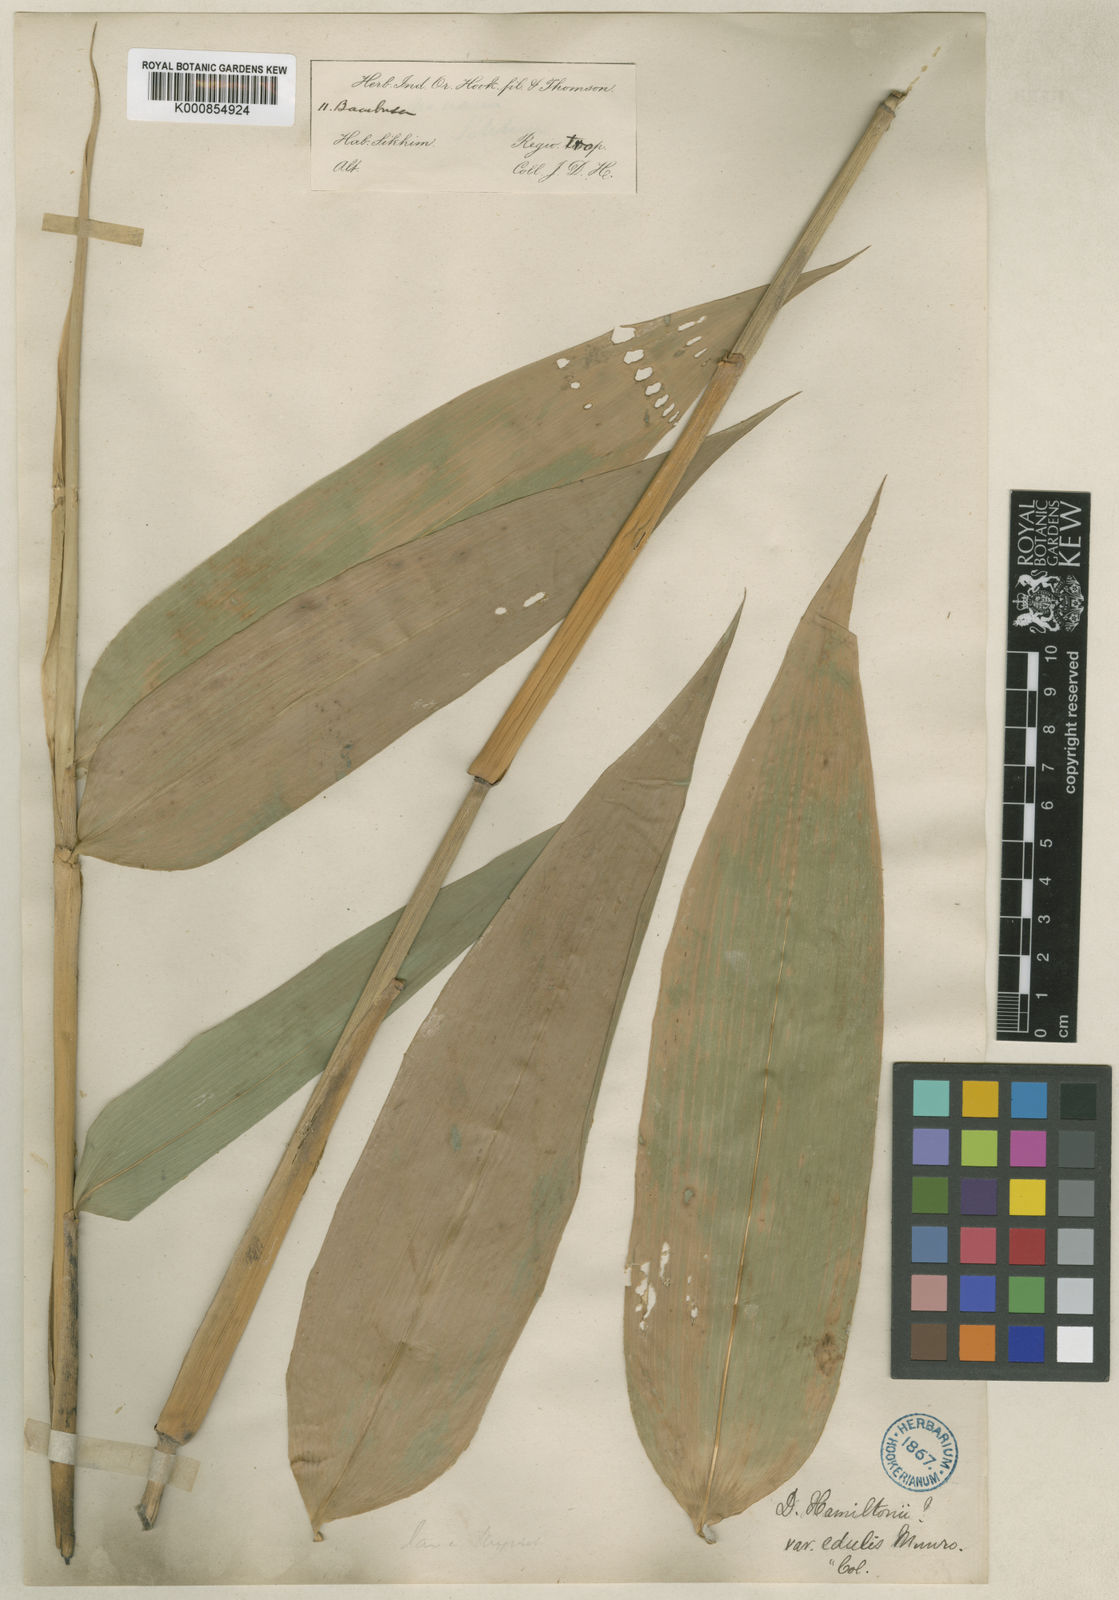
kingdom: Plantae
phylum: Tracheophyta
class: Liliopsida
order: Poales
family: Poaceae
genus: Dendrocalamus
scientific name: Dendrocalamus hamiltonii
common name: Tama bamboo
